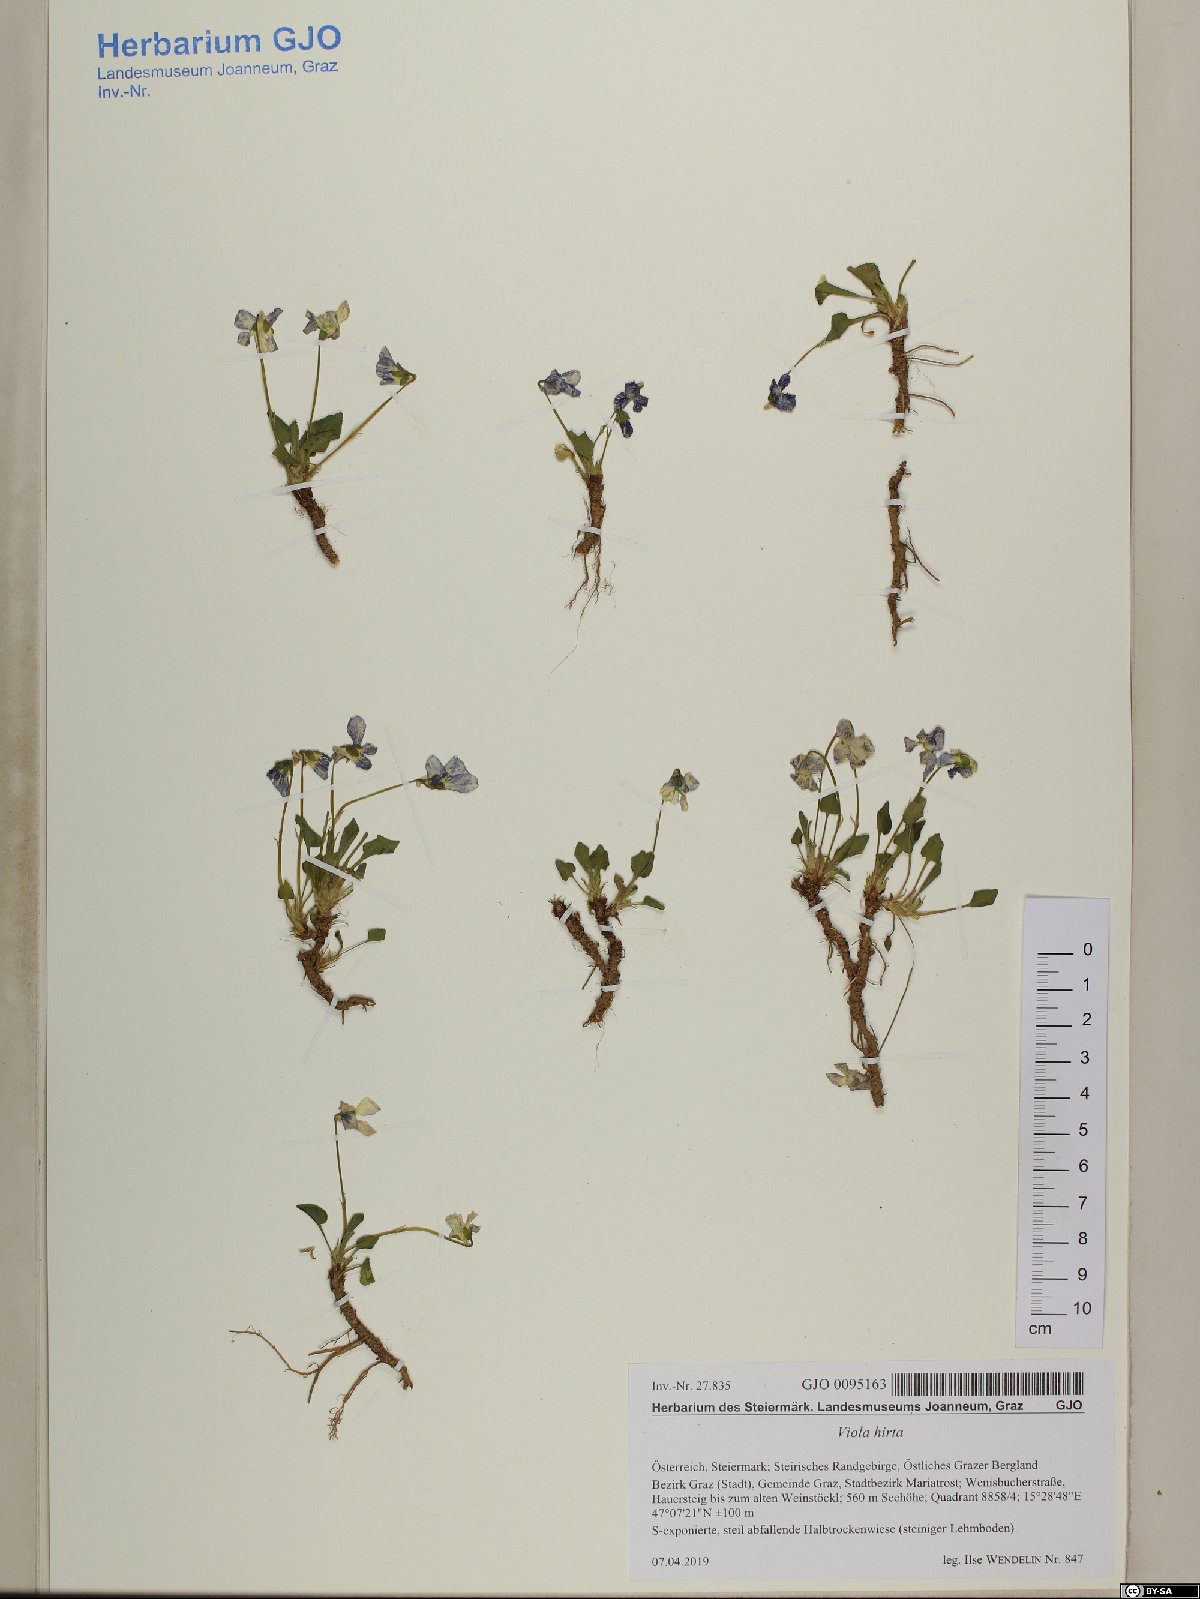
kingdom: Plantae
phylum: Tracheophyta
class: Magnoliopsida
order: Malpighiales
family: Violaceae
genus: Viola
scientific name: Viola hirta
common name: Hairy violet
